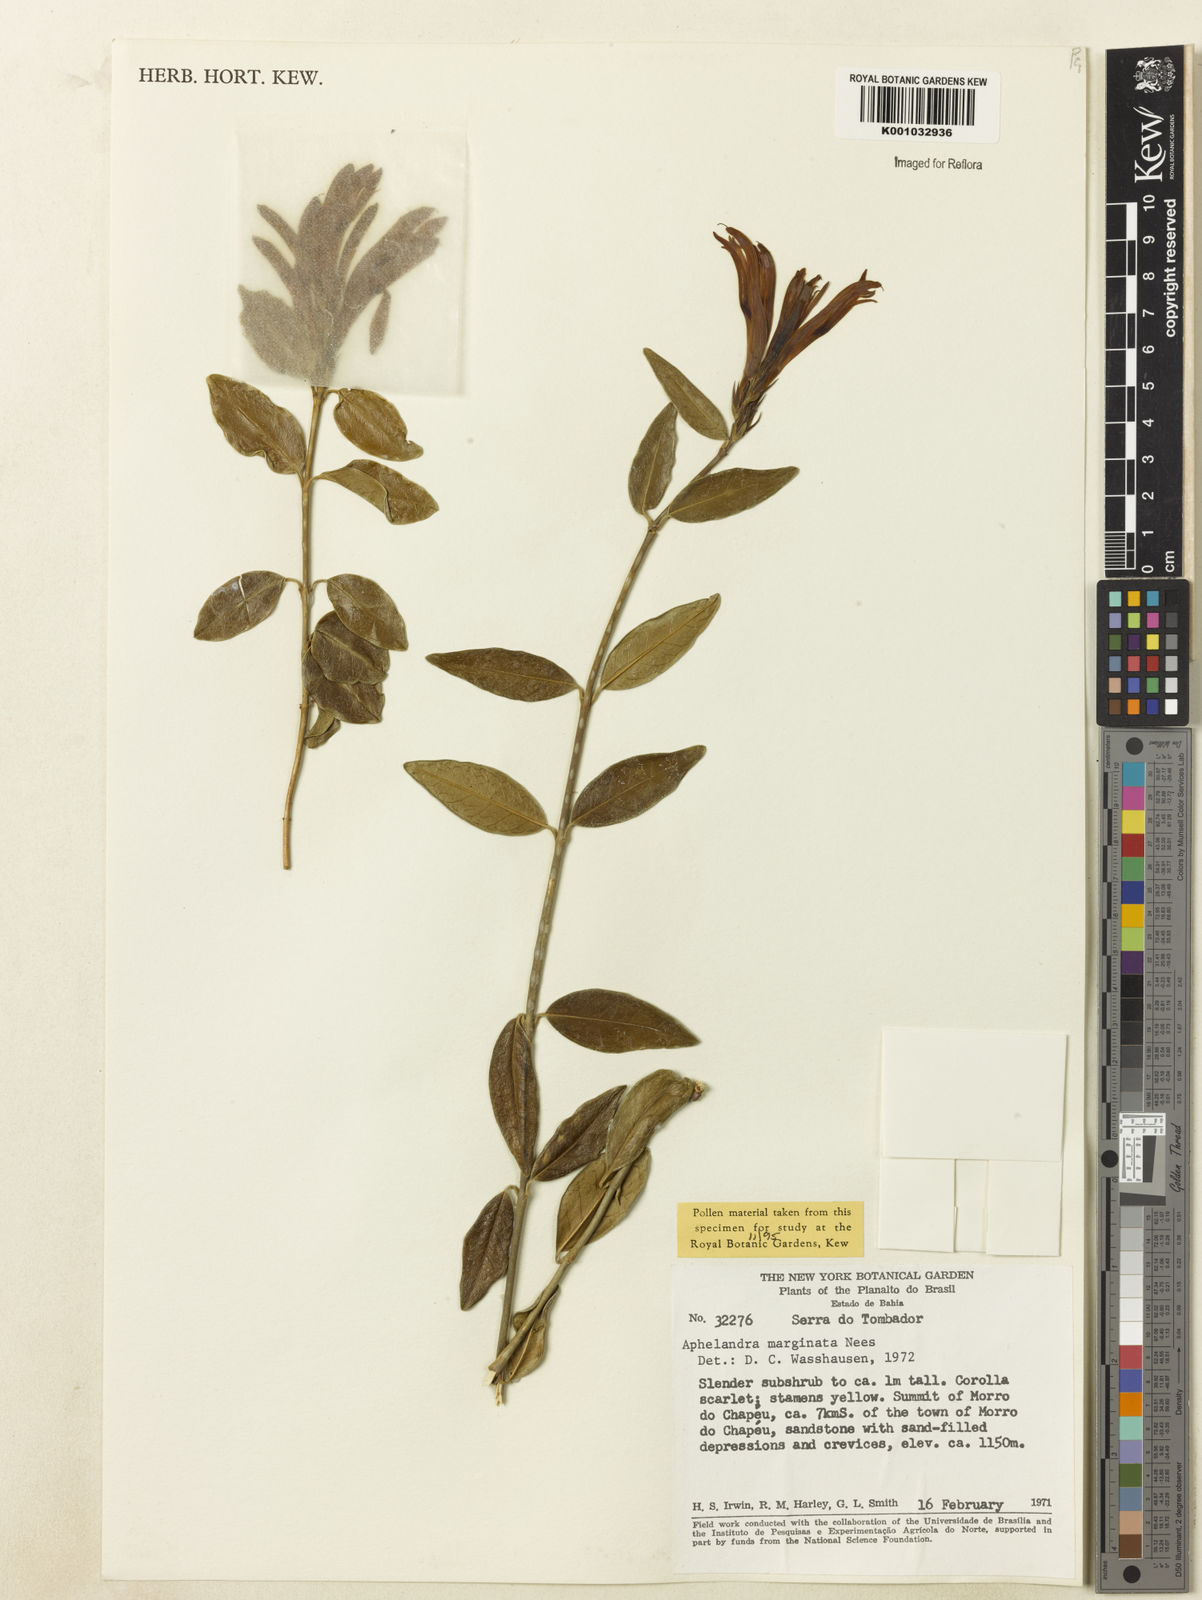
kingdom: Plantae
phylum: Tracheophyta
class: Magnoliopsida
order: Lamiales
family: Acanthaceae
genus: Aphelandra
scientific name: Aphelandra marginata
